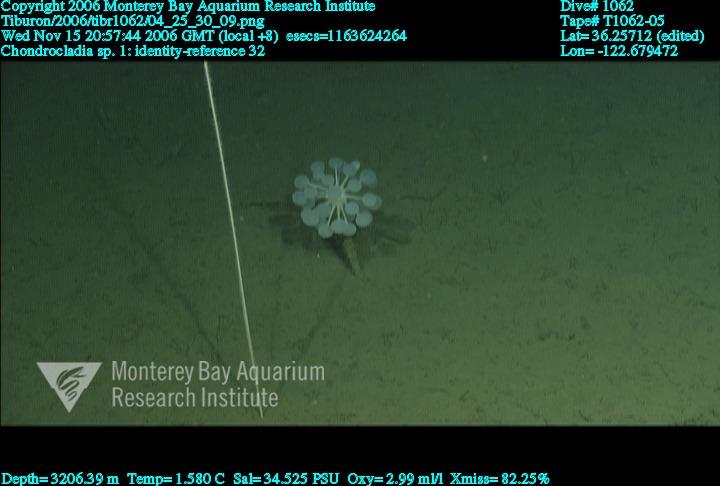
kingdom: Animalia
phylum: Porifera
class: Demospongiae
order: Poecilosclerida
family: Cladorhizidae
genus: Chondrocladia
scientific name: Chondrocladia
